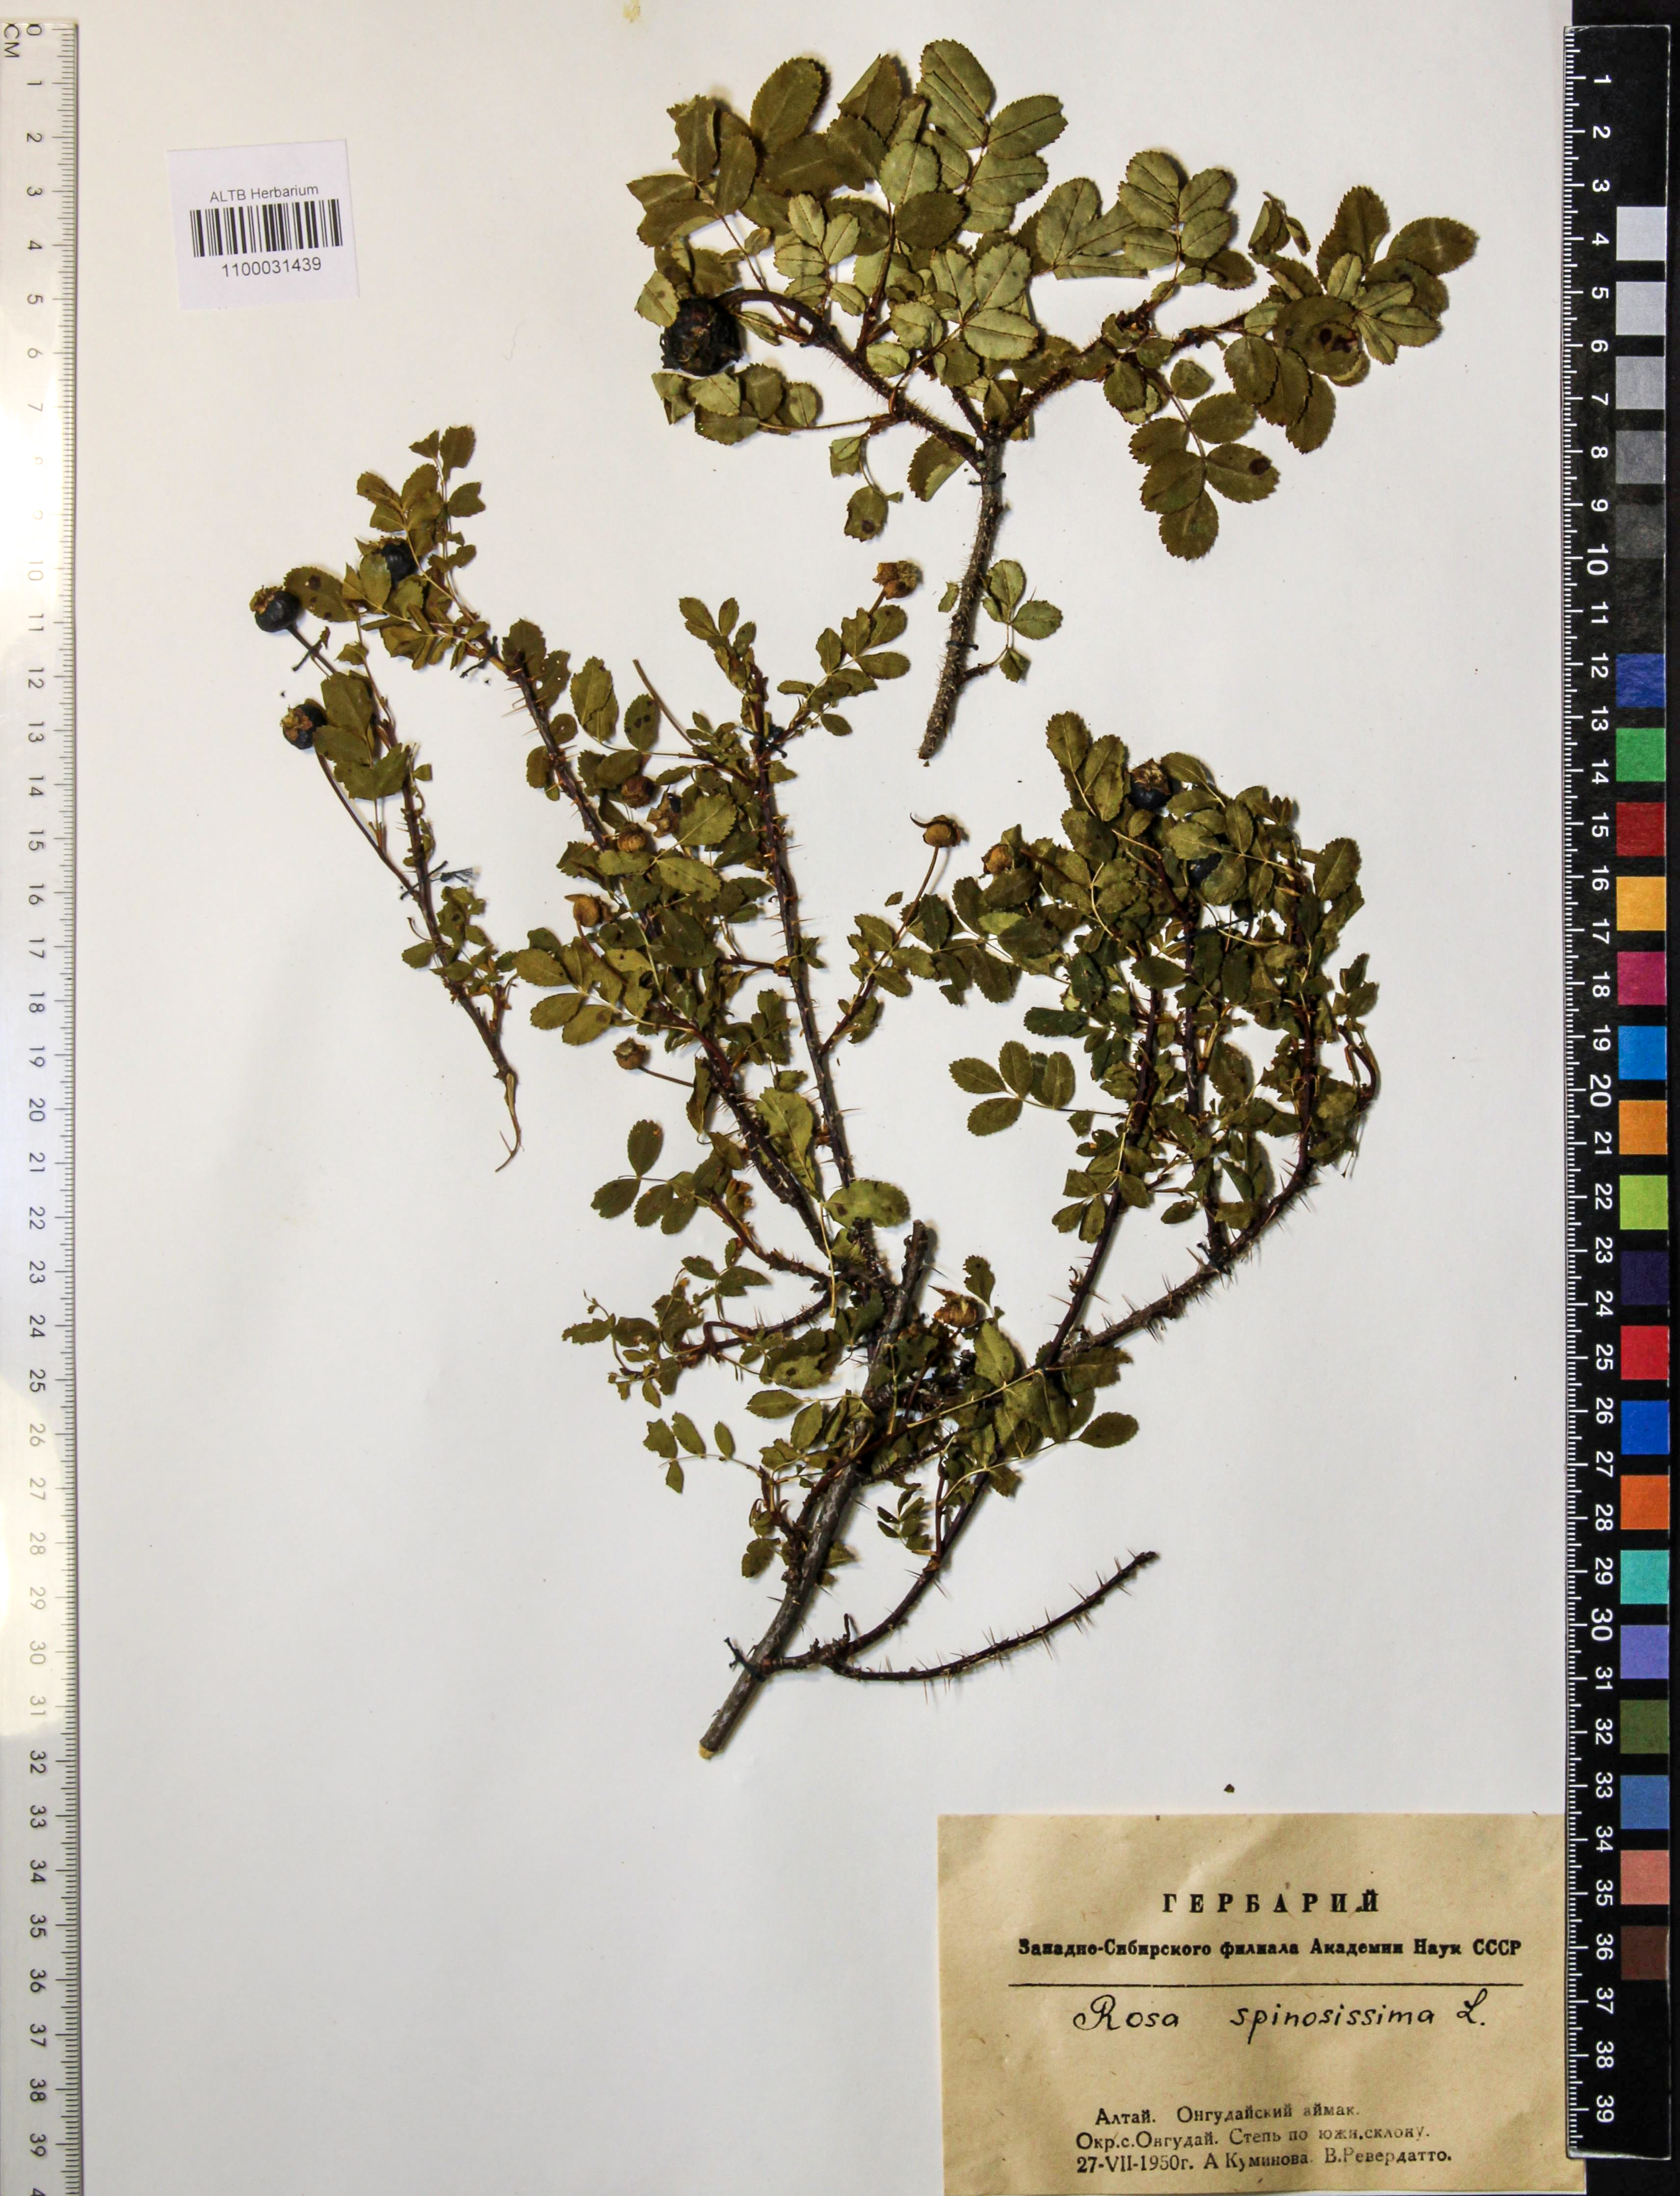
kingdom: Plantae
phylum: Tracheophyta
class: Magnoliopsida
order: Rosales
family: Rosaceae
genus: Rosa
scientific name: Rosa spinosissima
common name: Burnet rose
